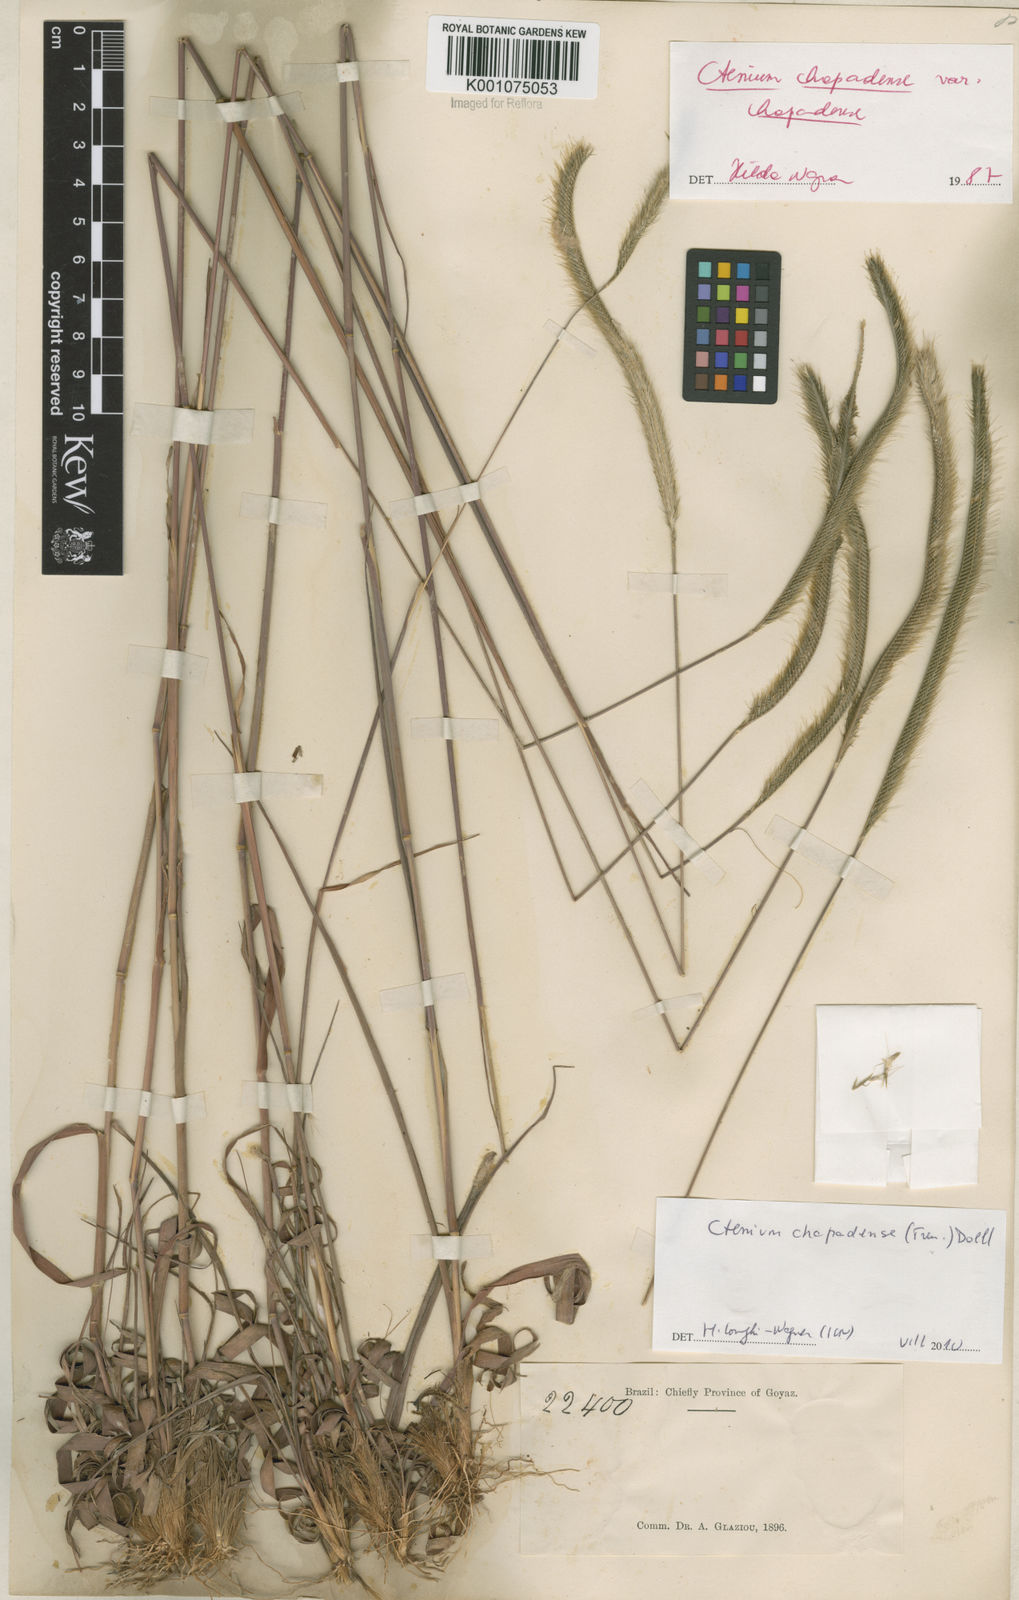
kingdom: Plantae
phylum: Tracheophyta
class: Liliopsida
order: Poales
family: Poaceae
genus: Ctenium
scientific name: Ctenium
